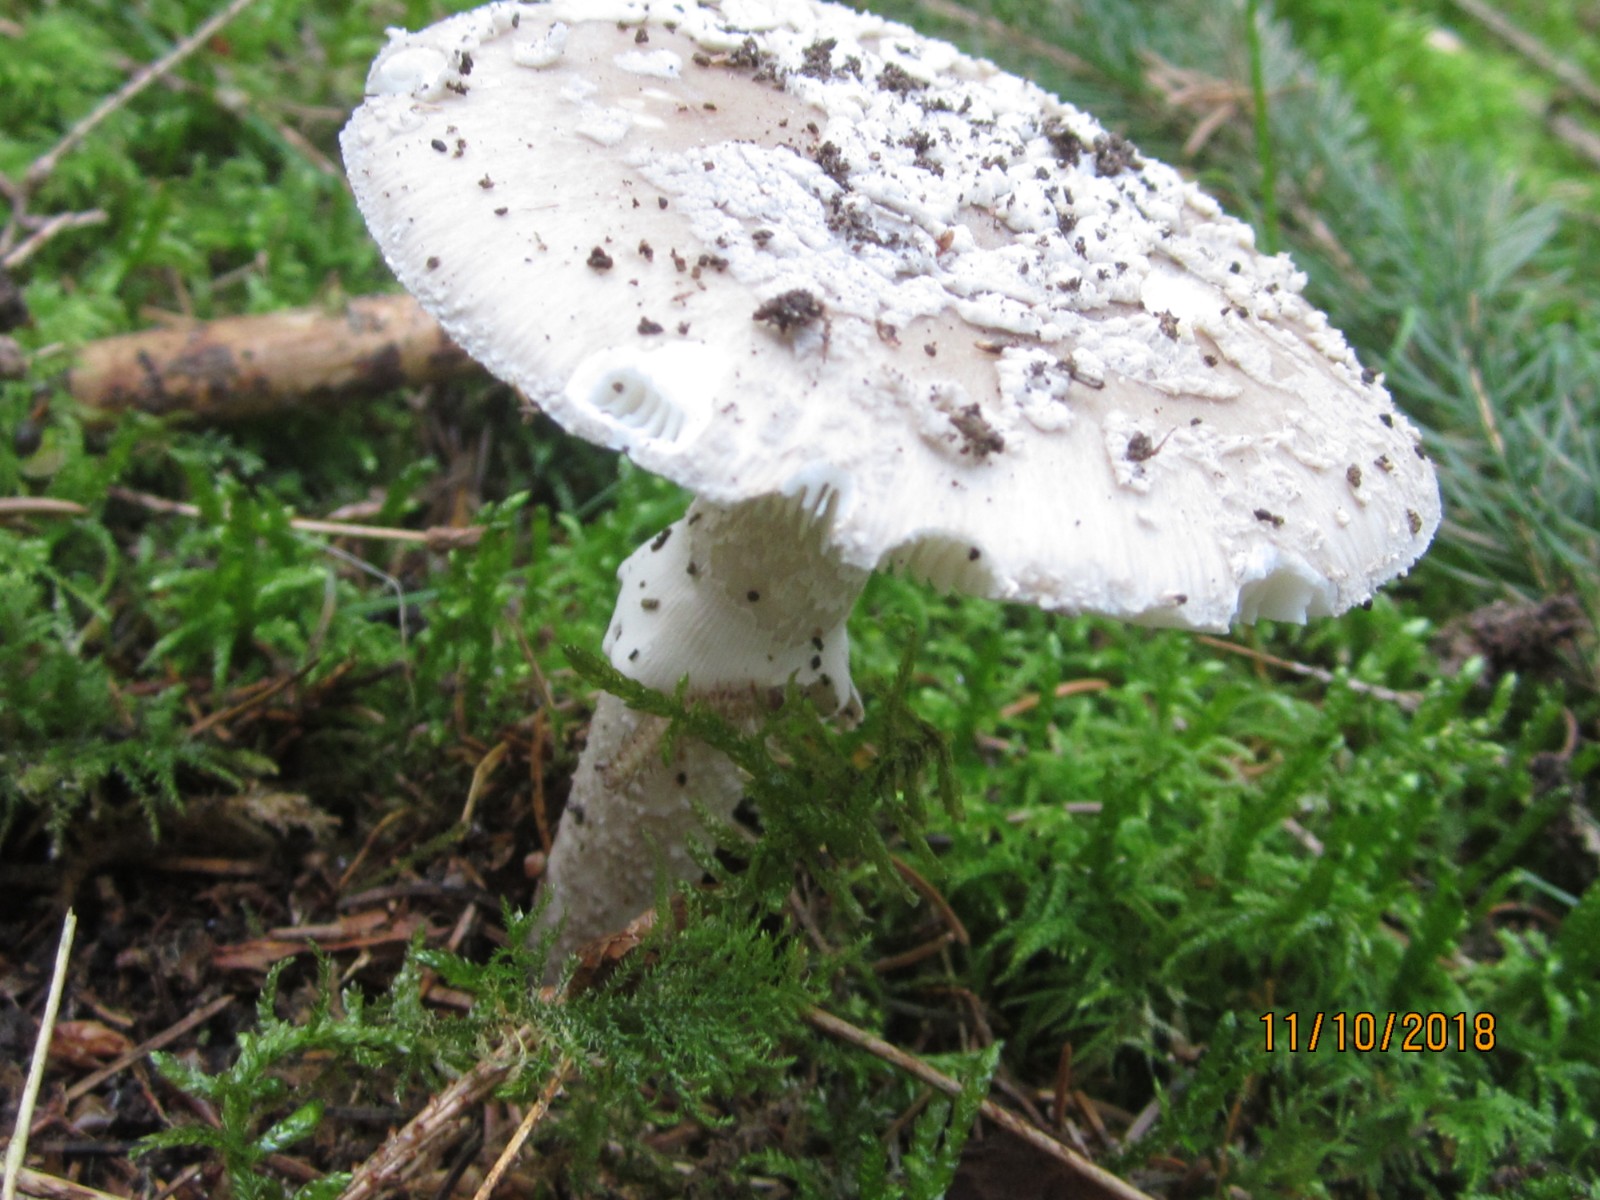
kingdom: Fungi
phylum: Basidiomycota
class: Agaricomycetes
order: Agaricales
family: Amanitaceae
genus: Amanita
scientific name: Amanita
